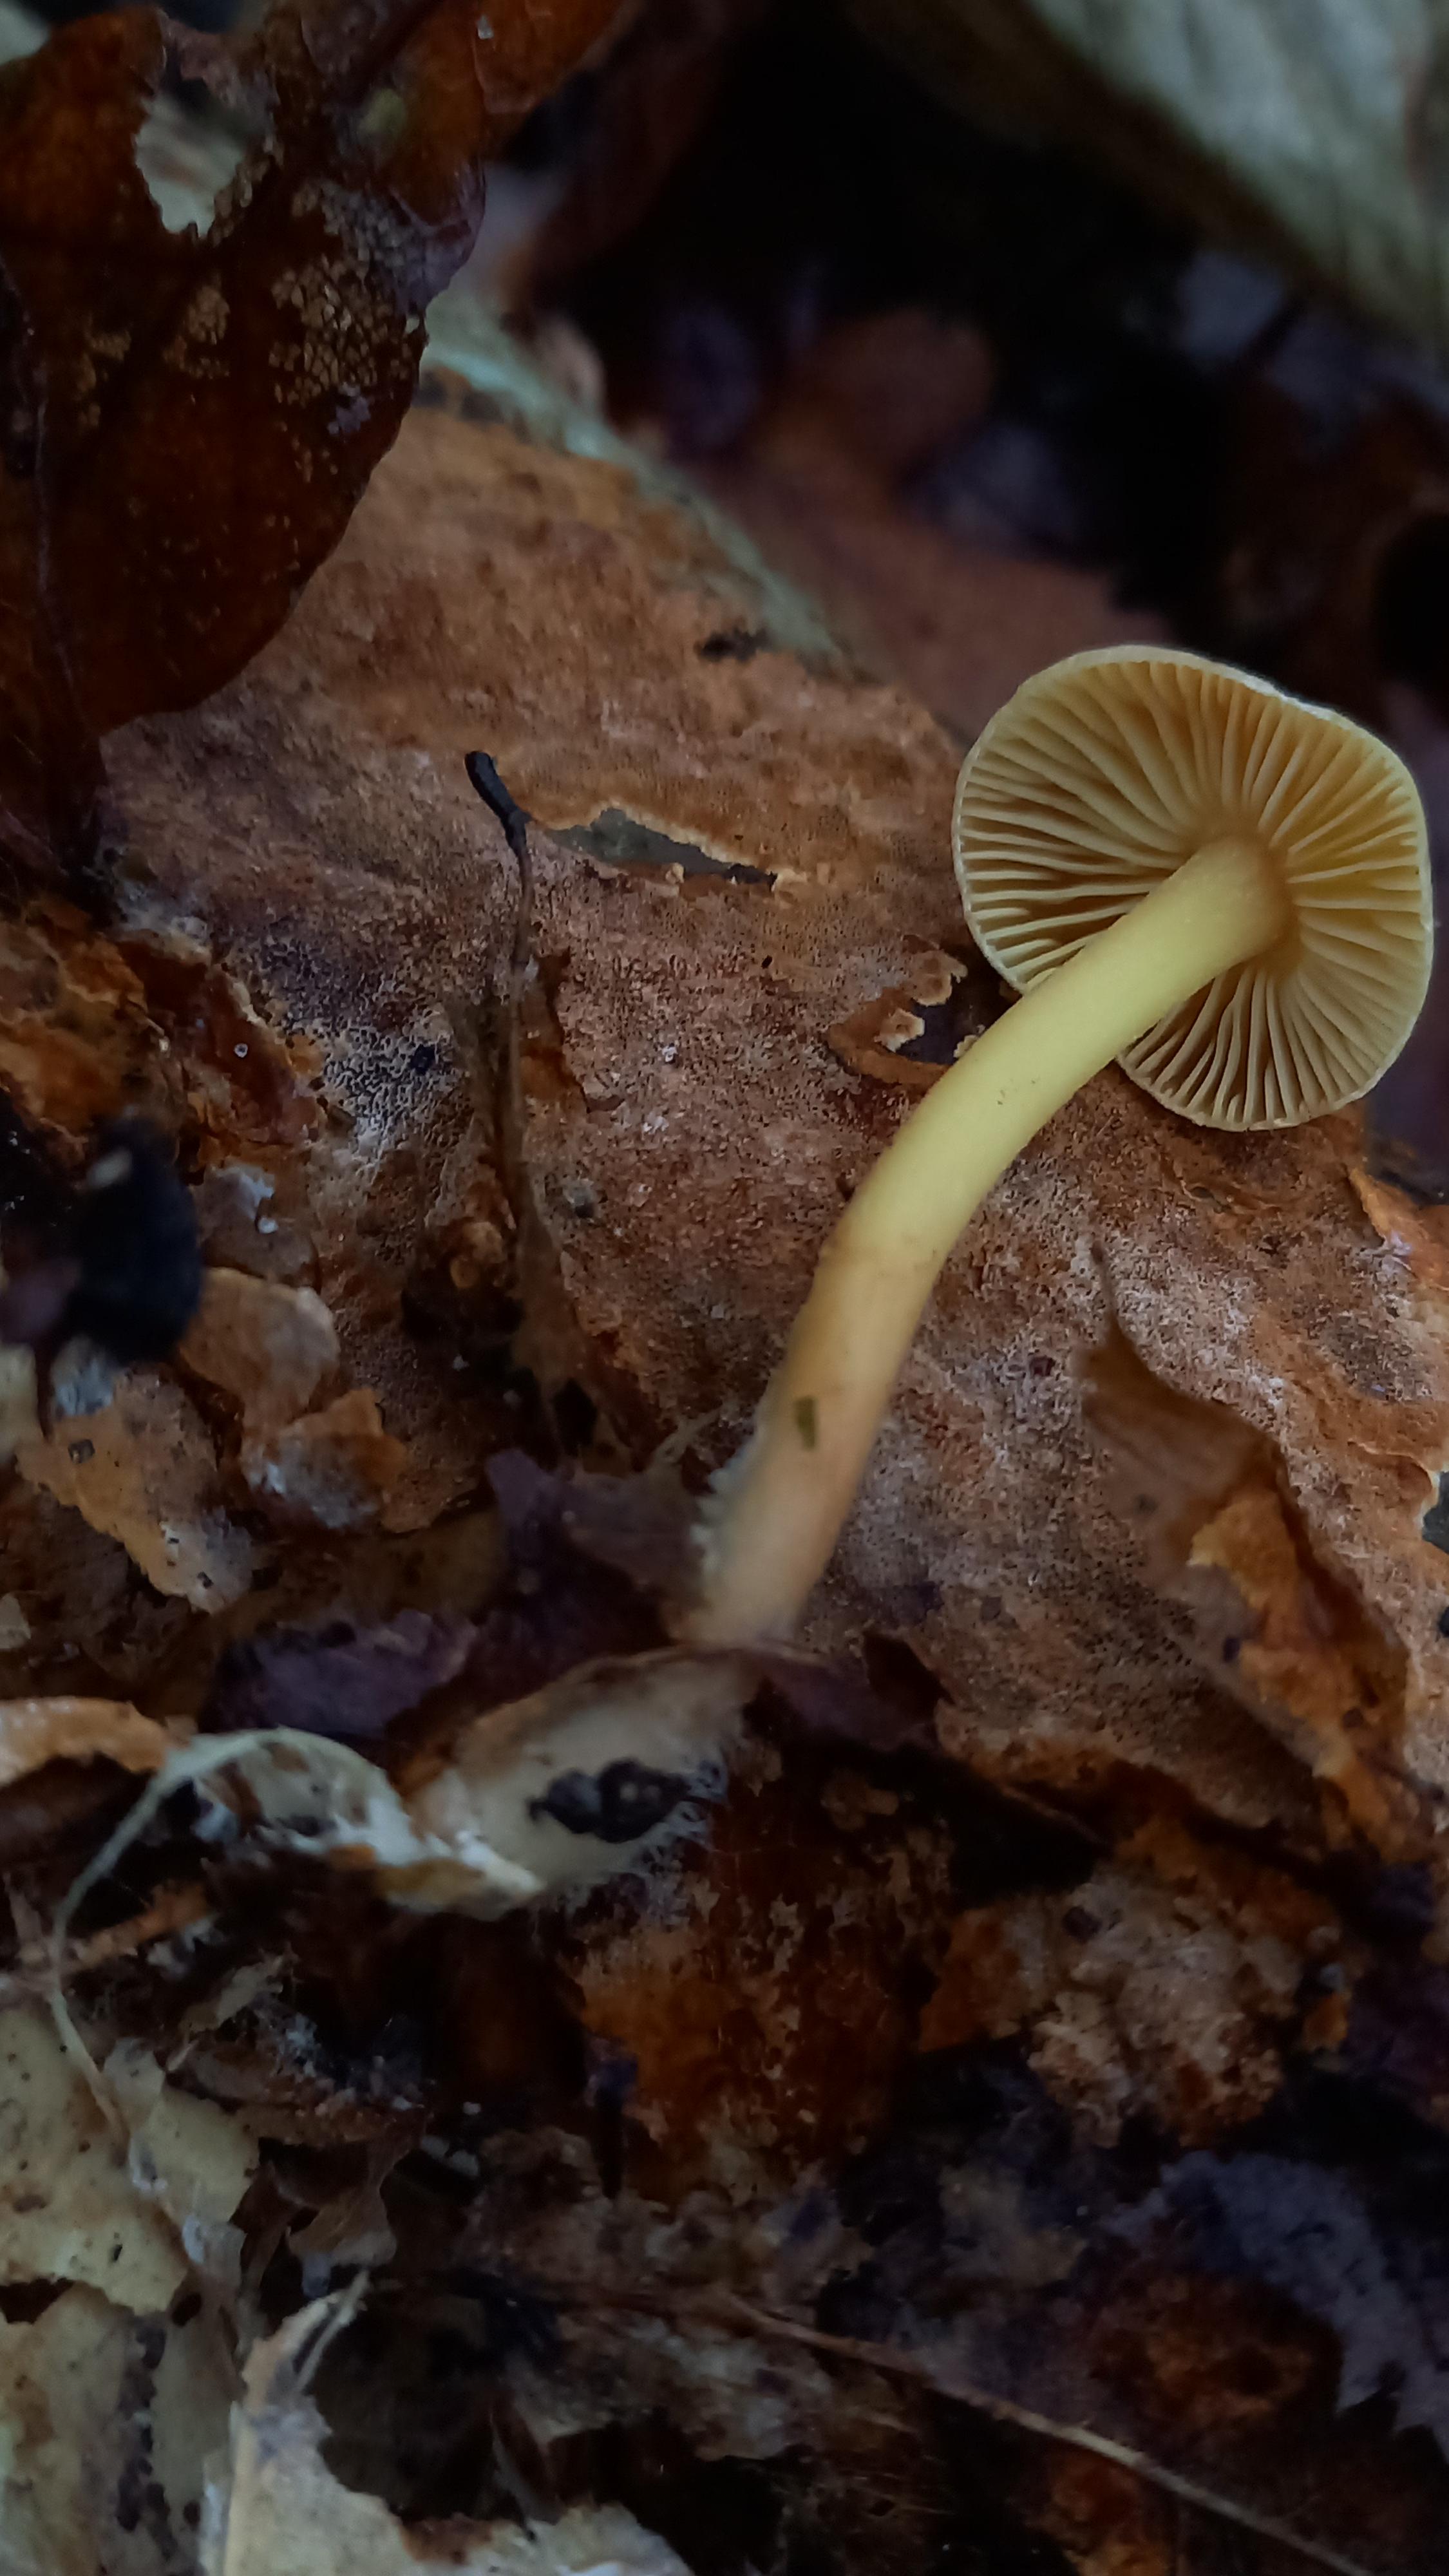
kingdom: Fungi
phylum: Basidiomycota
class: Agaricomycetes
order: Agaricales
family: Omphalotaceae
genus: Collybiopsis
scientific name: Collybiopsis peronata
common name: bestøvlet fladhat
